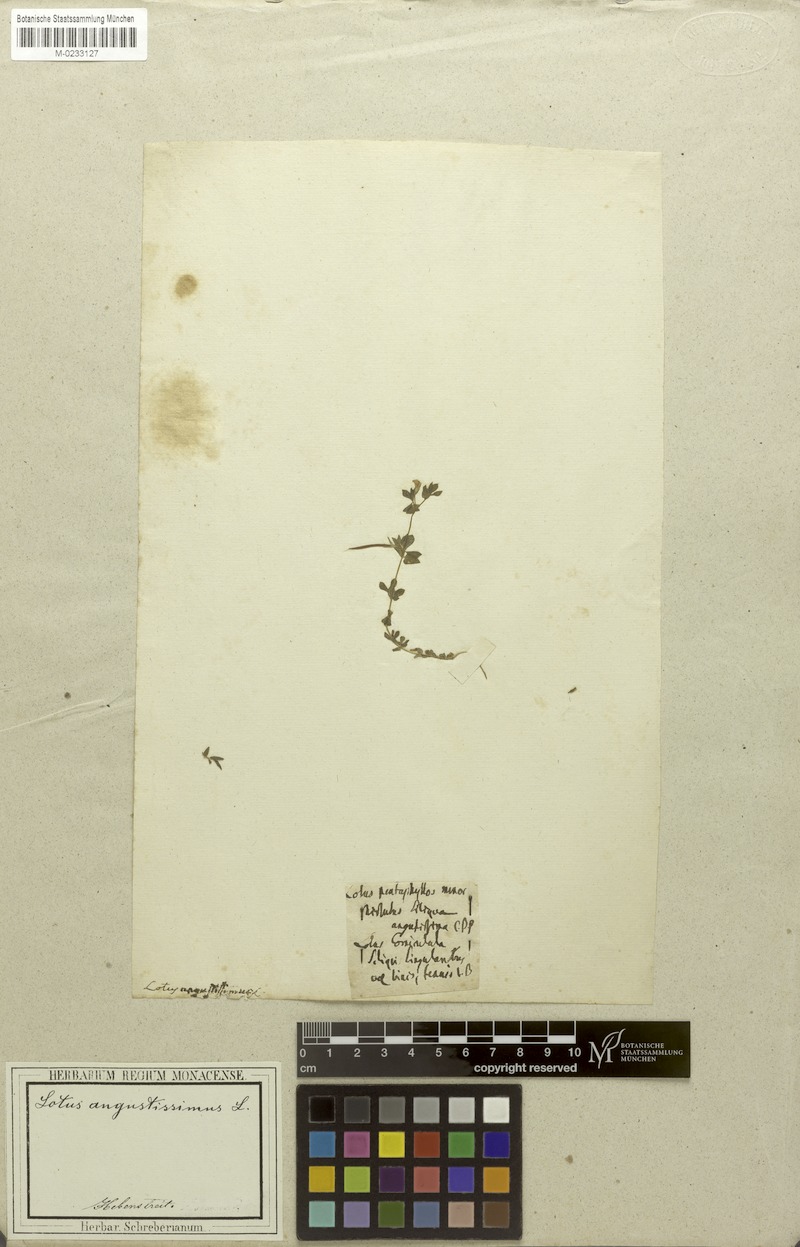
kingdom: Plantae
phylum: Tracheophyta
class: Magnoliopsida
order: Fabales
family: Fabaceae
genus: Lotus
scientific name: Lotus angustissimus
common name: Slender bird's-foot trefoil
